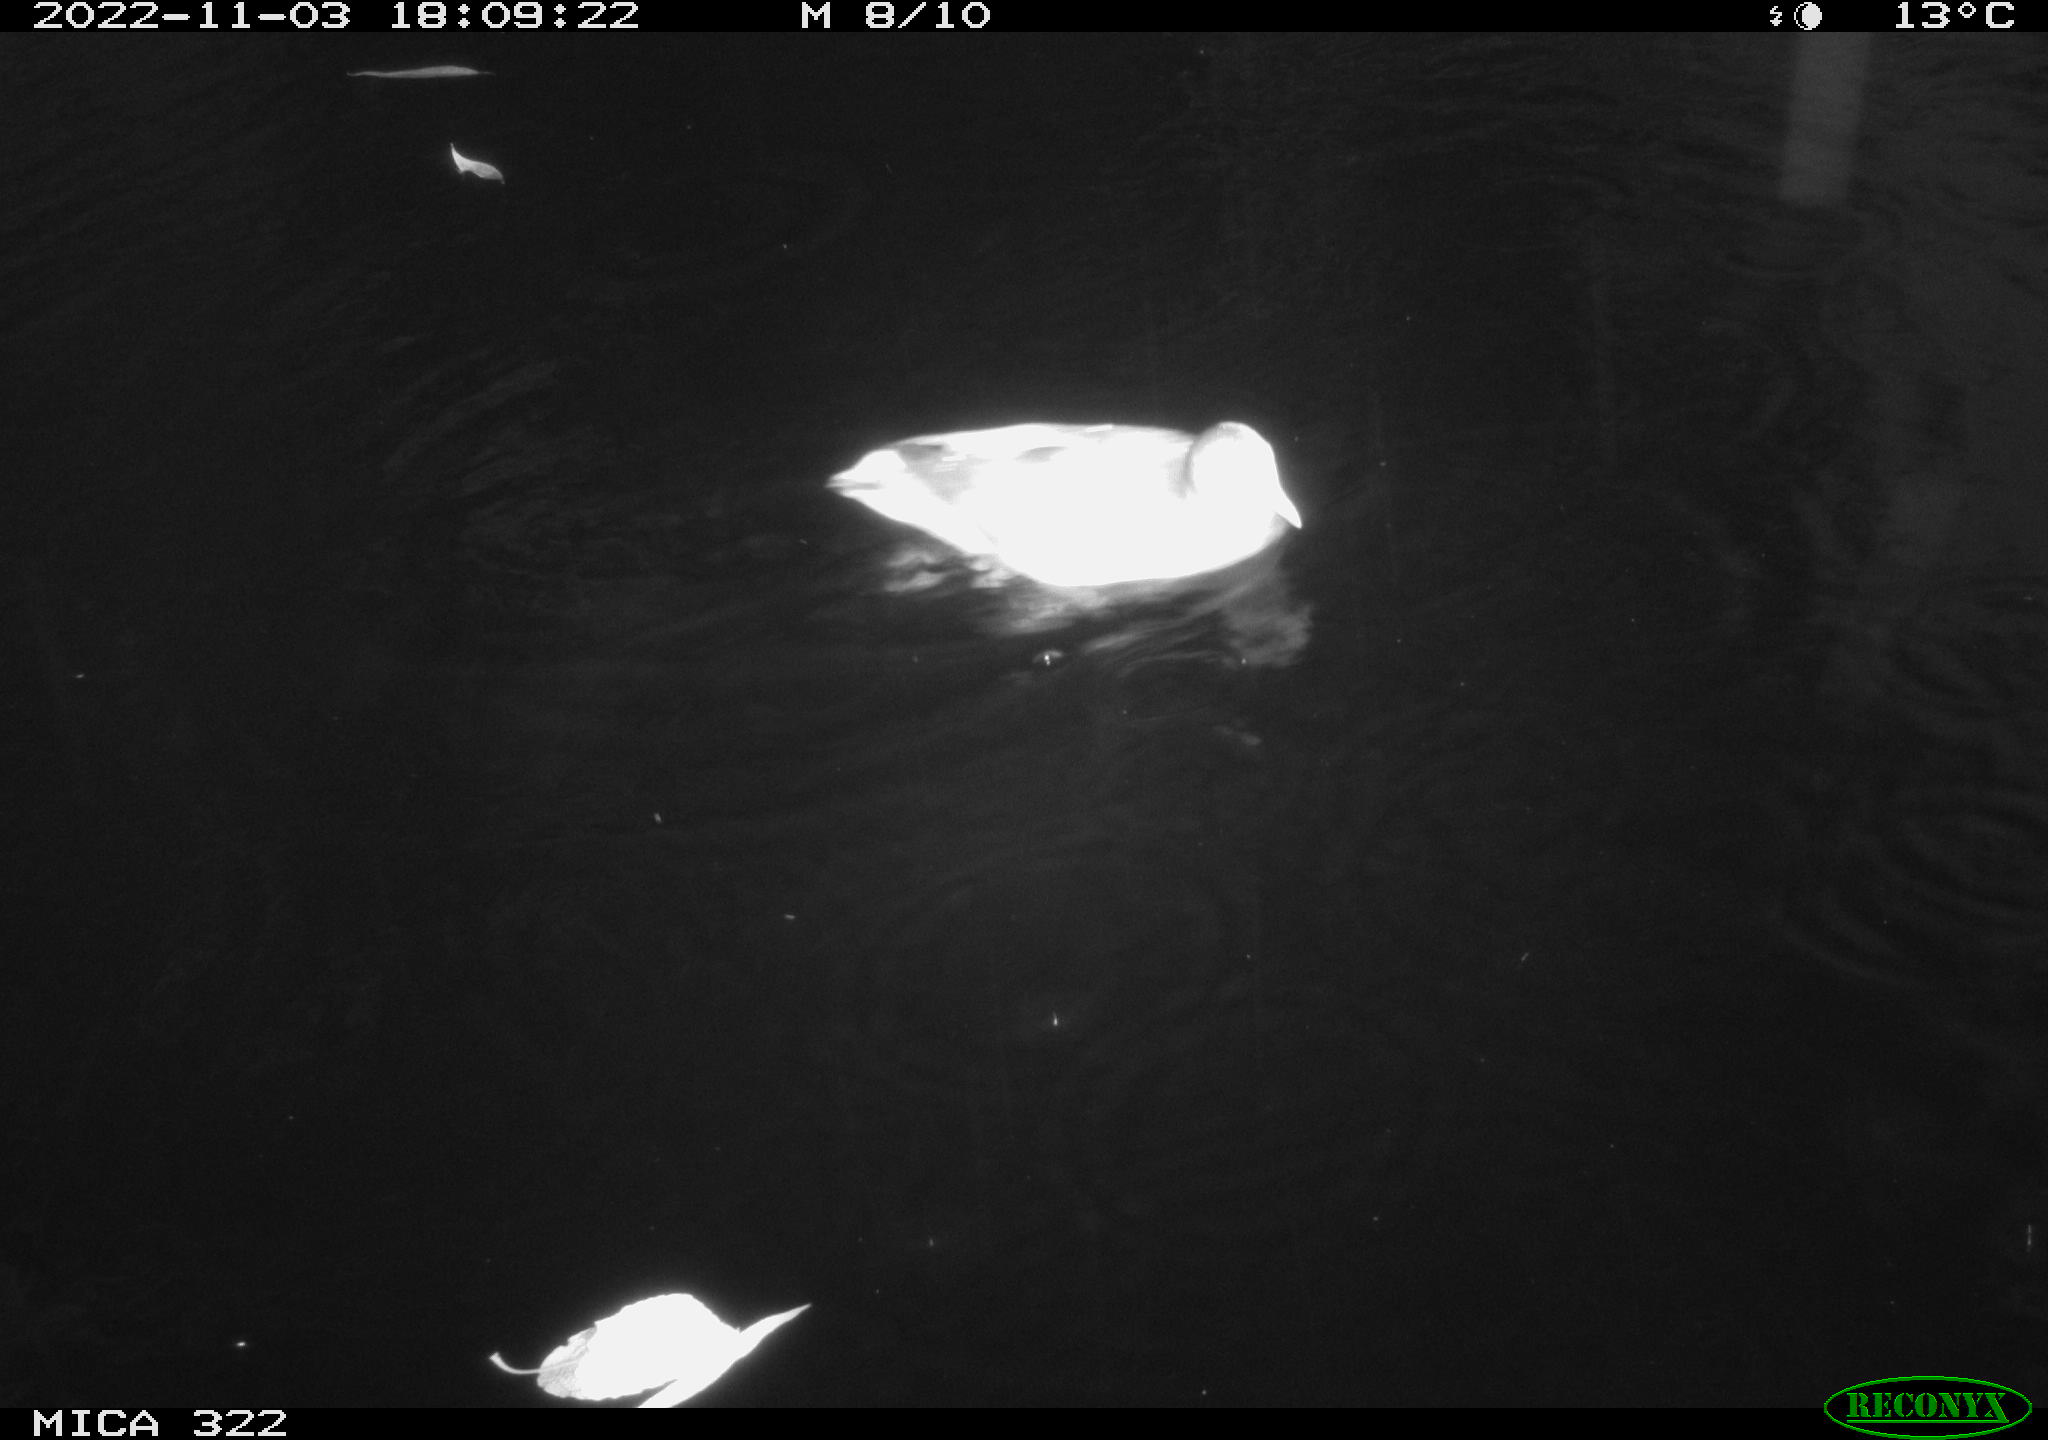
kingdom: Animalia
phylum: Chordata
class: Aves
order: Anseriformes
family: Anatidae
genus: Anas
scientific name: Anas
